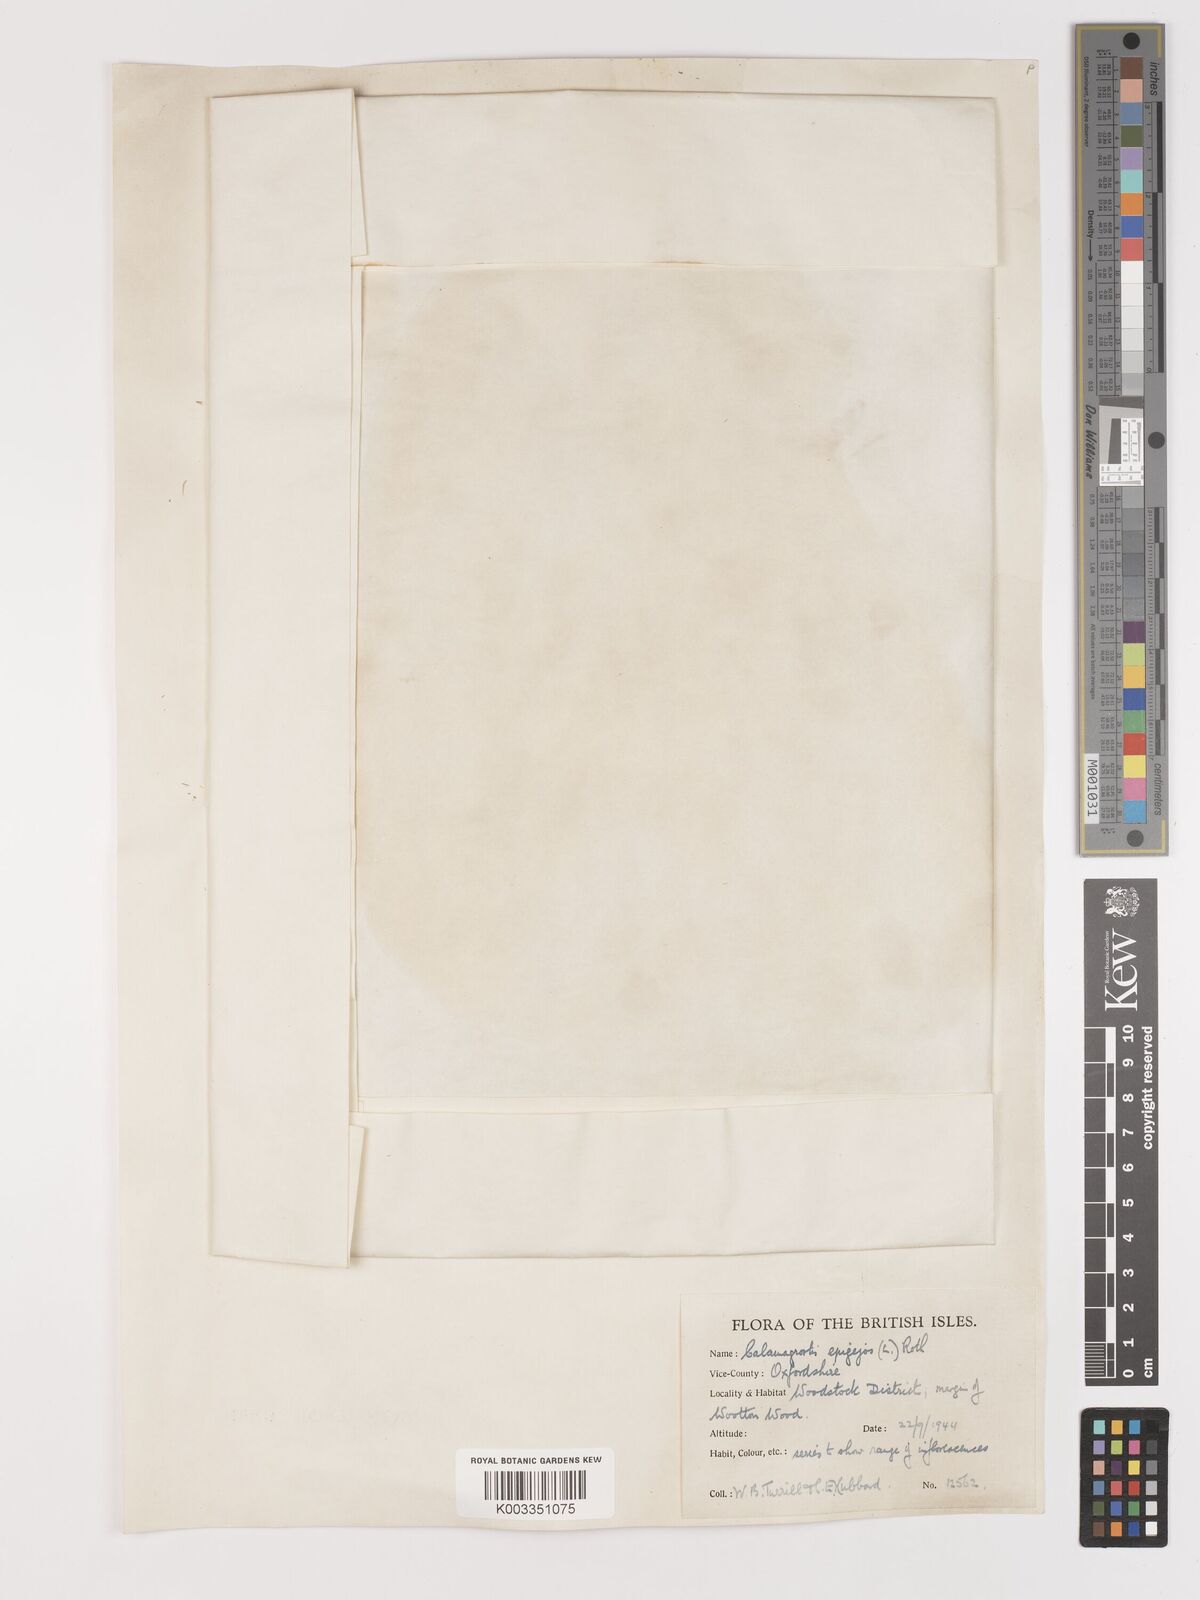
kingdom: Plantae
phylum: Tracheophyta
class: Liliopsida
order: Poales
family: Poaceae
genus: Calamagrostis
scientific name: Calamagrostis epigejos
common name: Wood small-reed
